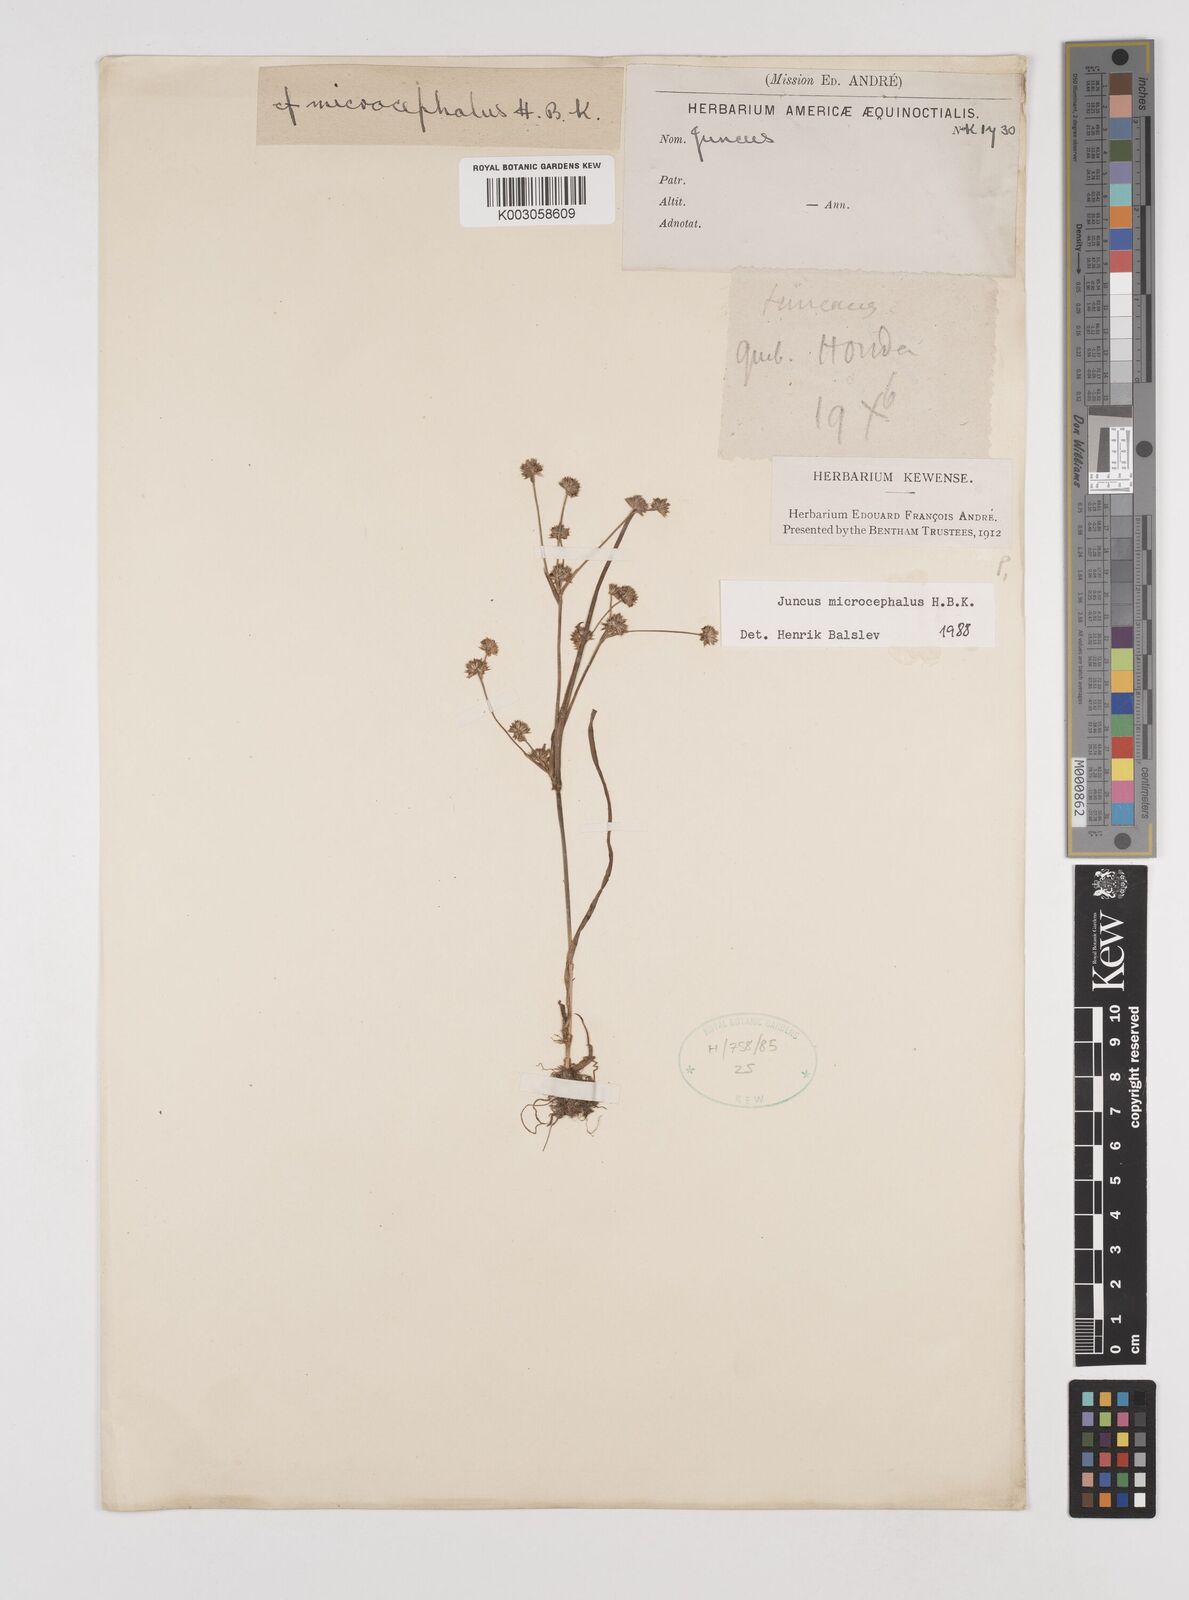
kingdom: Plantae
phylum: Tracheophyta
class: Liliopsida
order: Poales
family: Juncaceae
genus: Juncus
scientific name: Juncus
